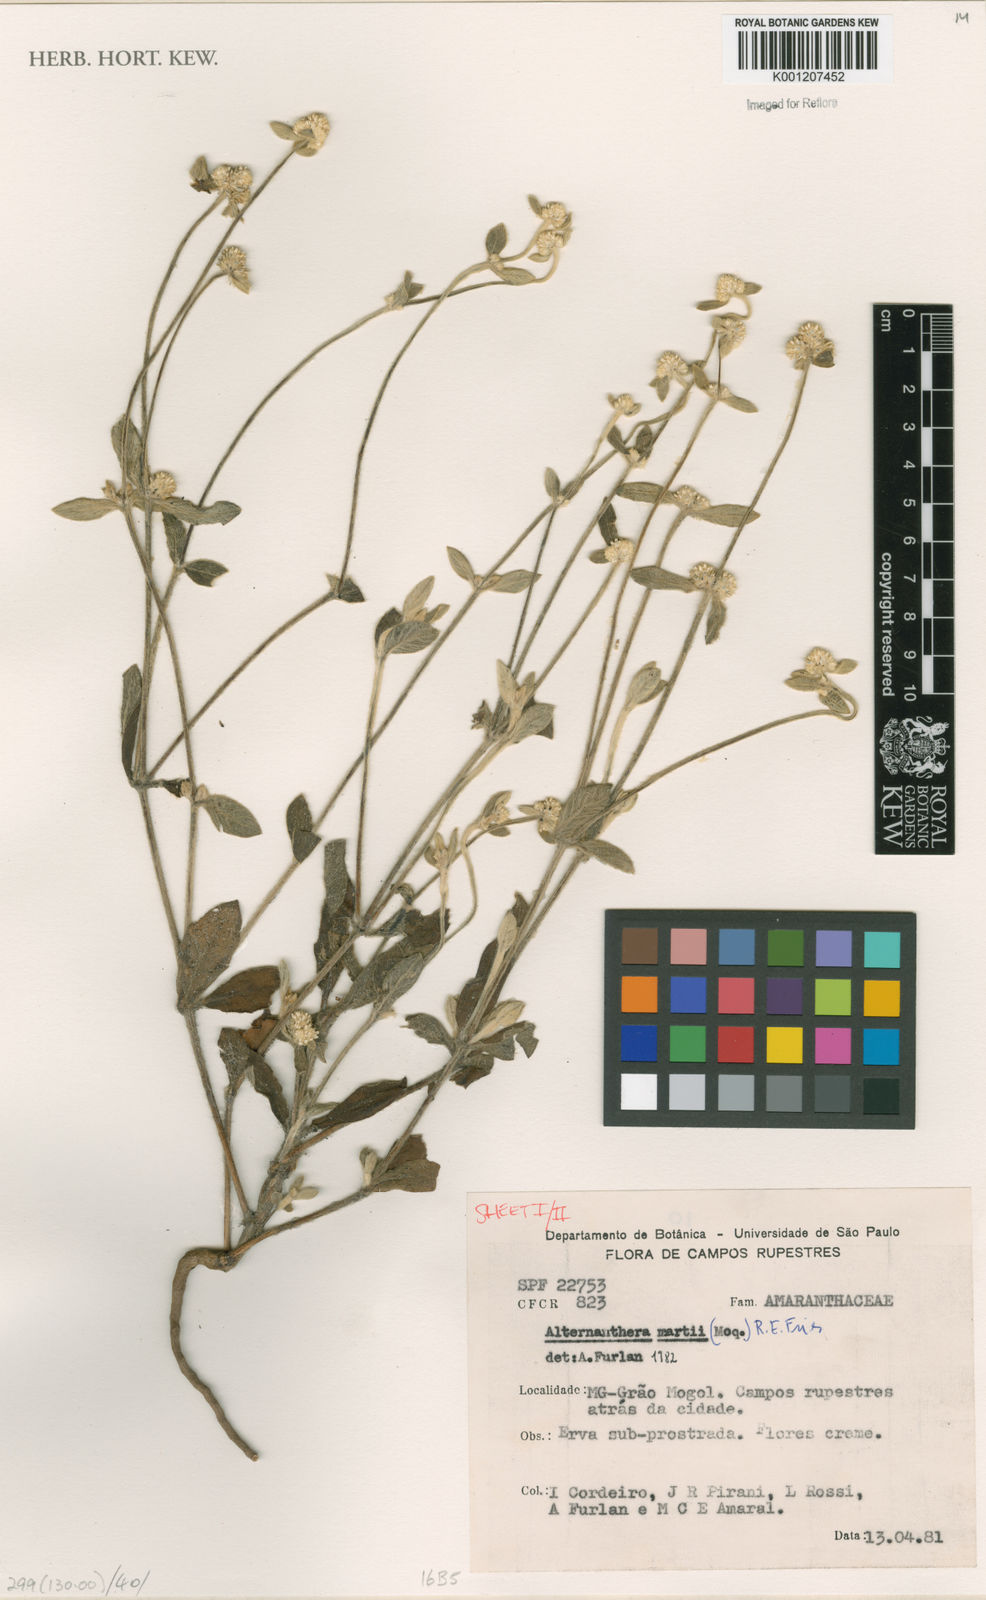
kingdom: Plantae
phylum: Tracheophyta
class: Magnoliopsida
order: Caryophyllales
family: Amaranthaceae
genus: Alternanthera
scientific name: Alternanthera martii
